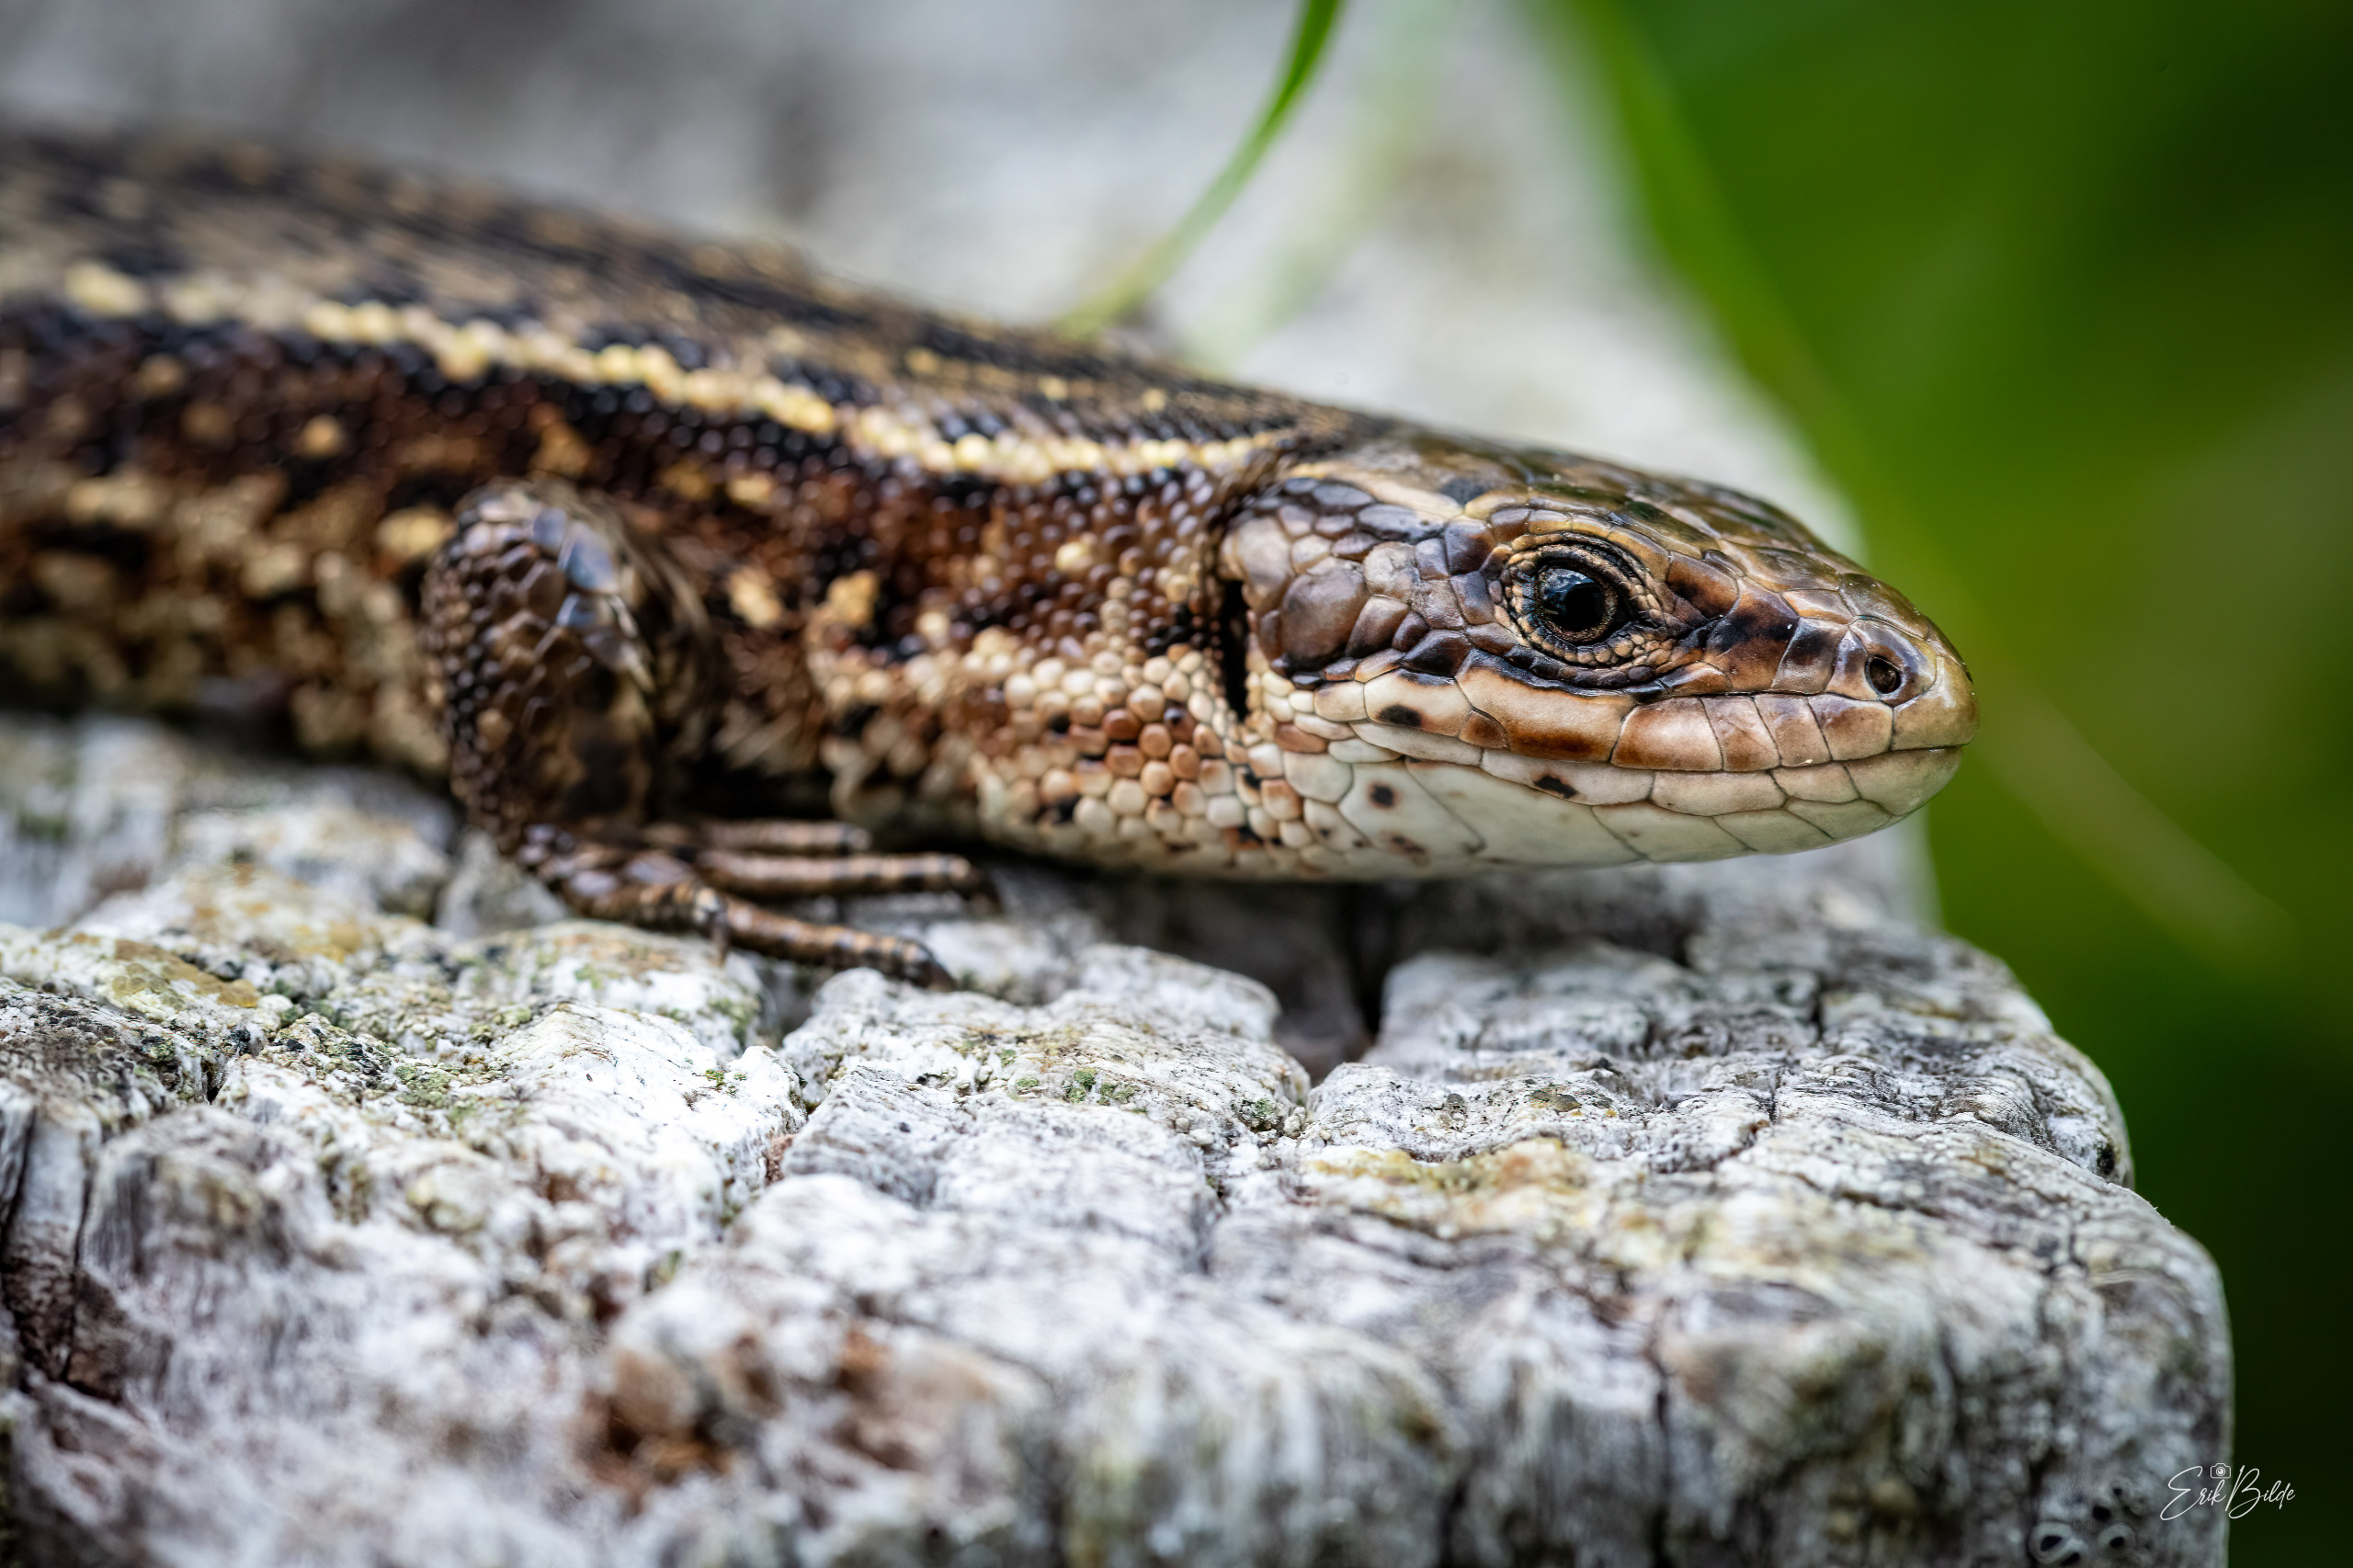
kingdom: Animalia
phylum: Chordata
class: Squamata
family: Lacertidae
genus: Zootoca
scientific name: Zootoca vivipara
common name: Skovfirben
